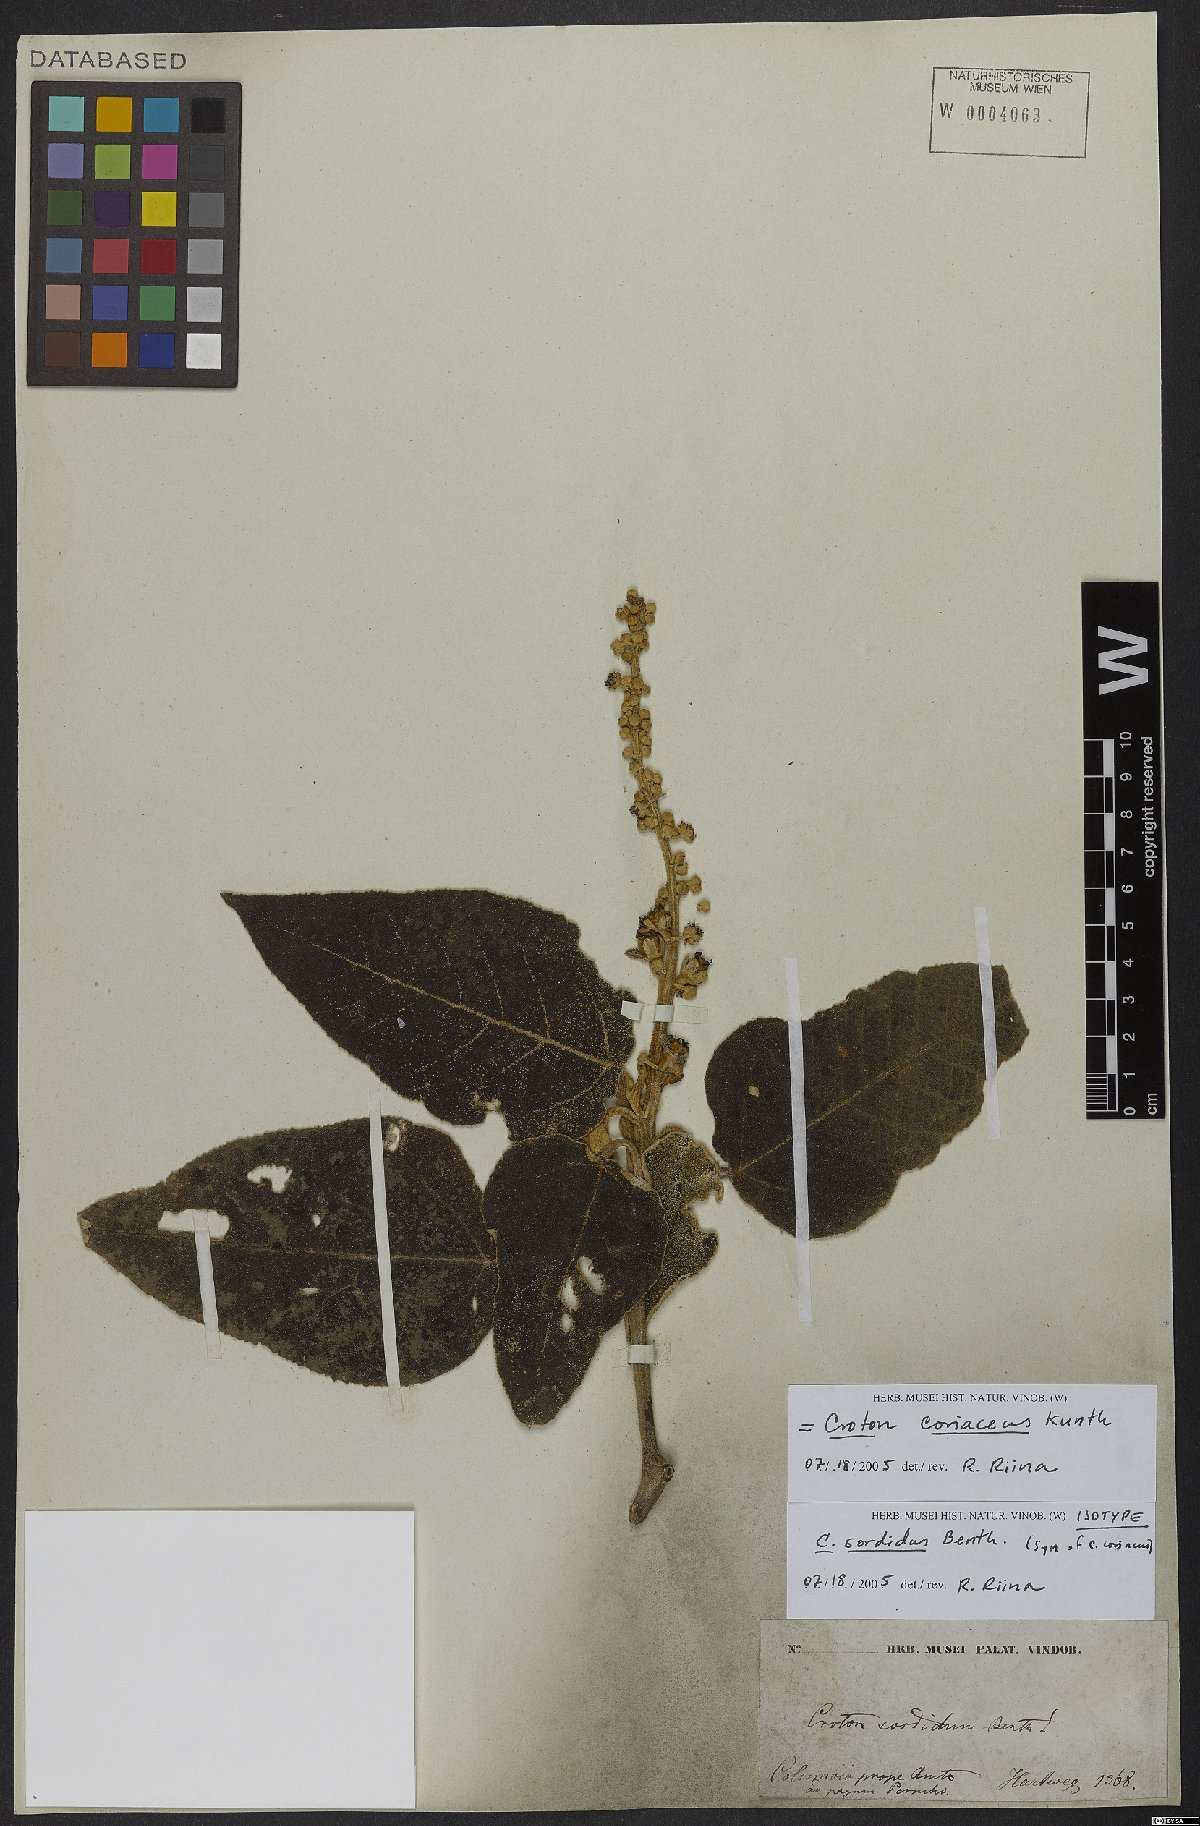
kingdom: Plantae
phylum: Tracheophyta
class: Magnoliopsida
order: Malpighiales
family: Euphorbiaceae
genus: Croton
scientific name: Croton coriaceus
